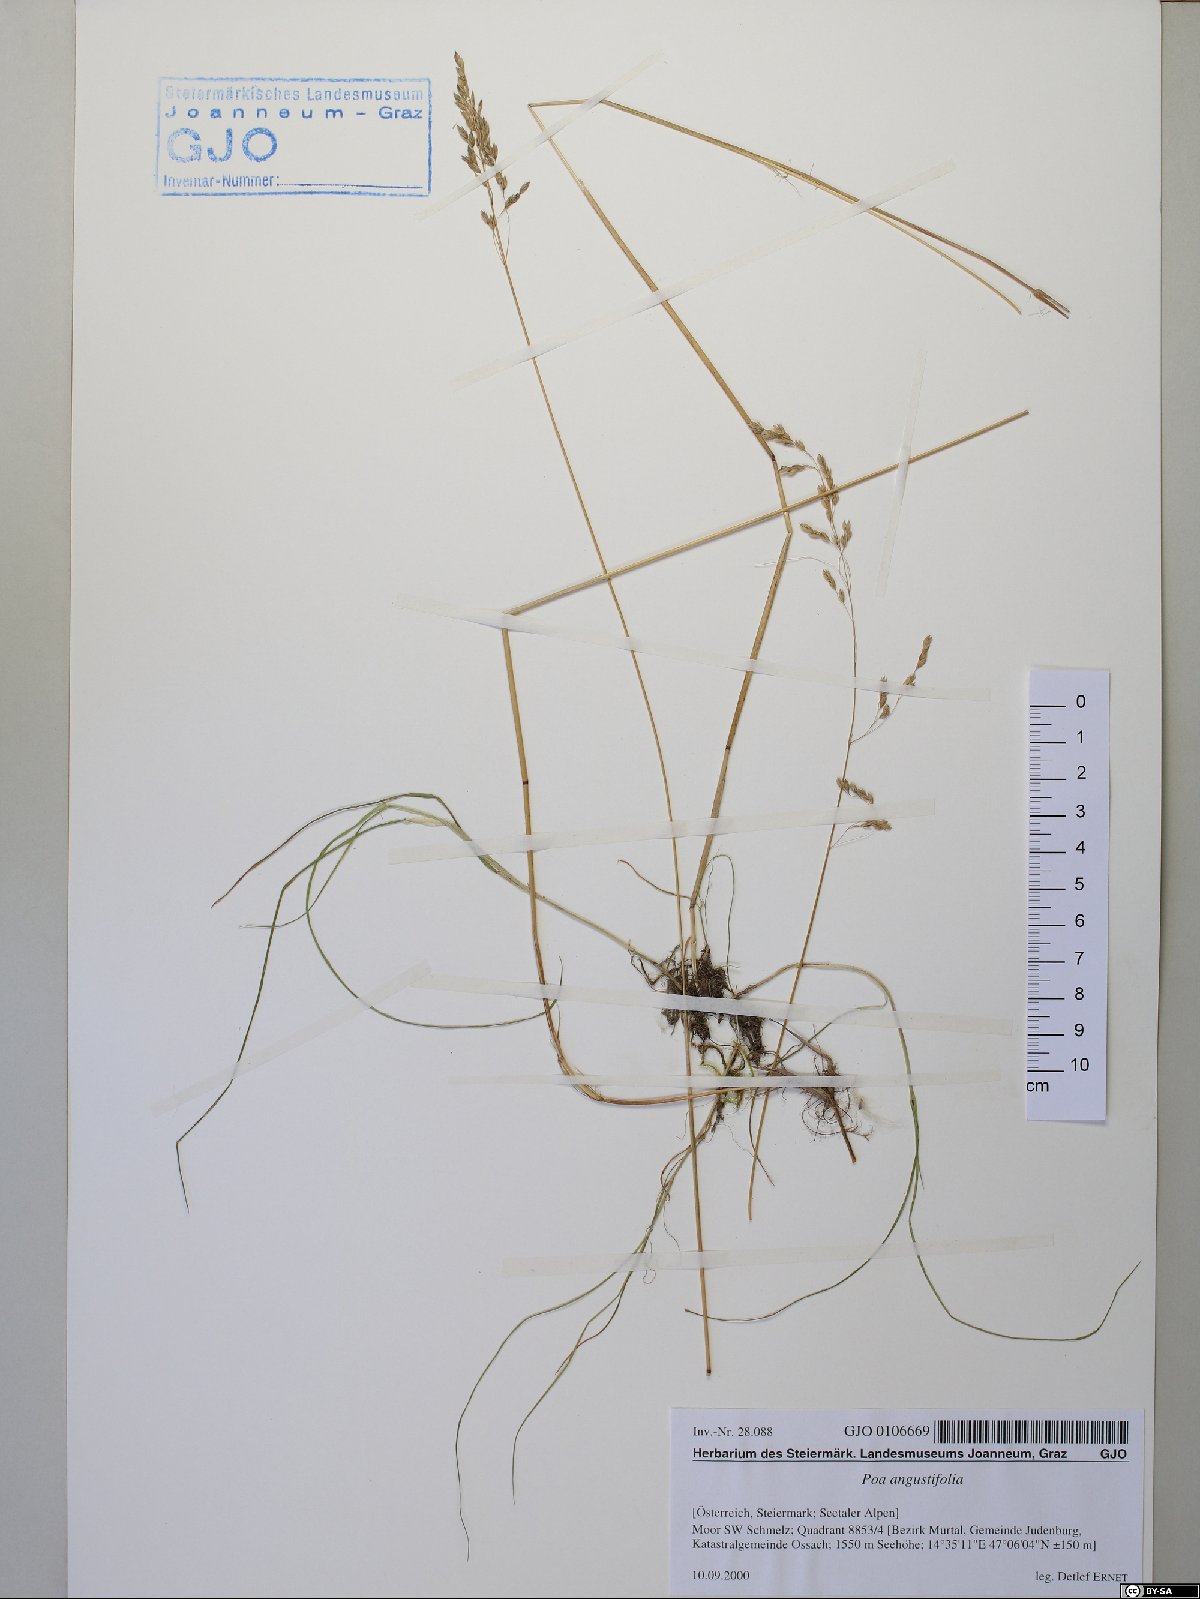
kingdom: Plantae
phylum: Tracheophyta
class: Liliopsida
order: Poales
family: Poaceae
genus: Poa
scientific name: Poa angustifolia
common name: Narrow-leaved meadow-grass
